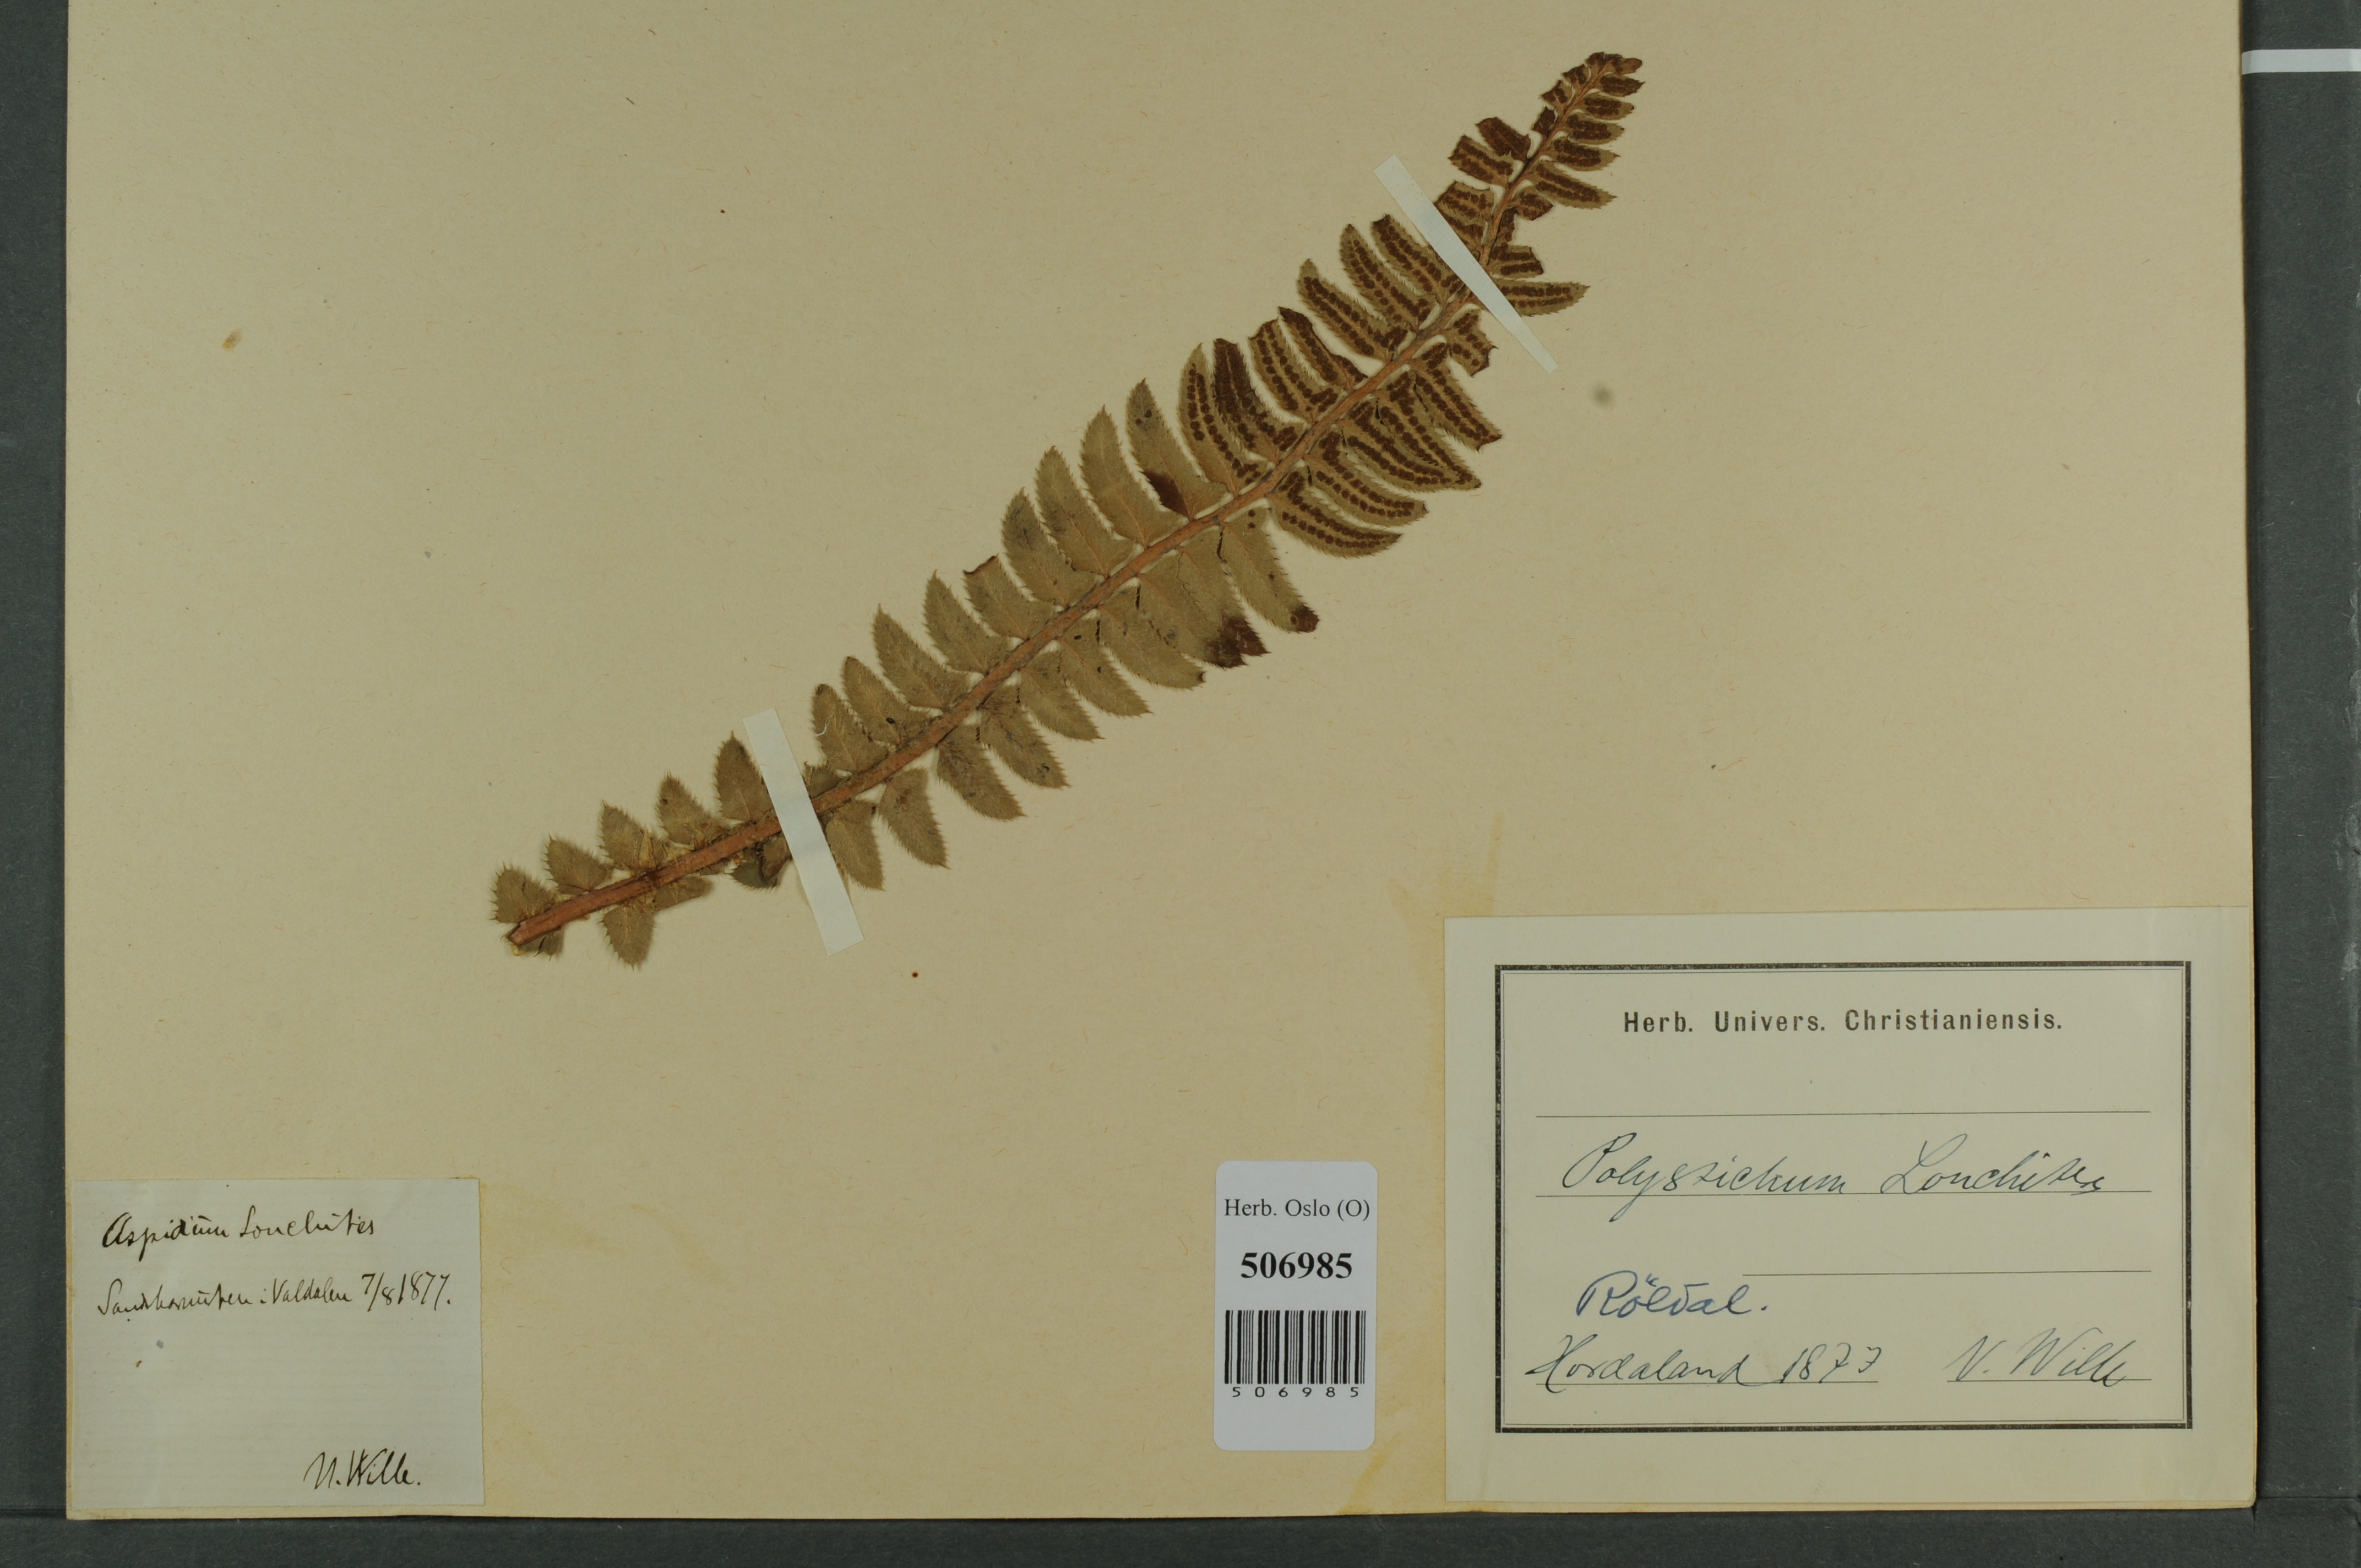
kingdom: Plantae
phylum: Tracheophyta
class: Polypodiopsida
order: Polypodiales
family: Dryopteridaceae
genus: Polystichum
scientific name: Polystichum lonchitis
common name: Holly fern
